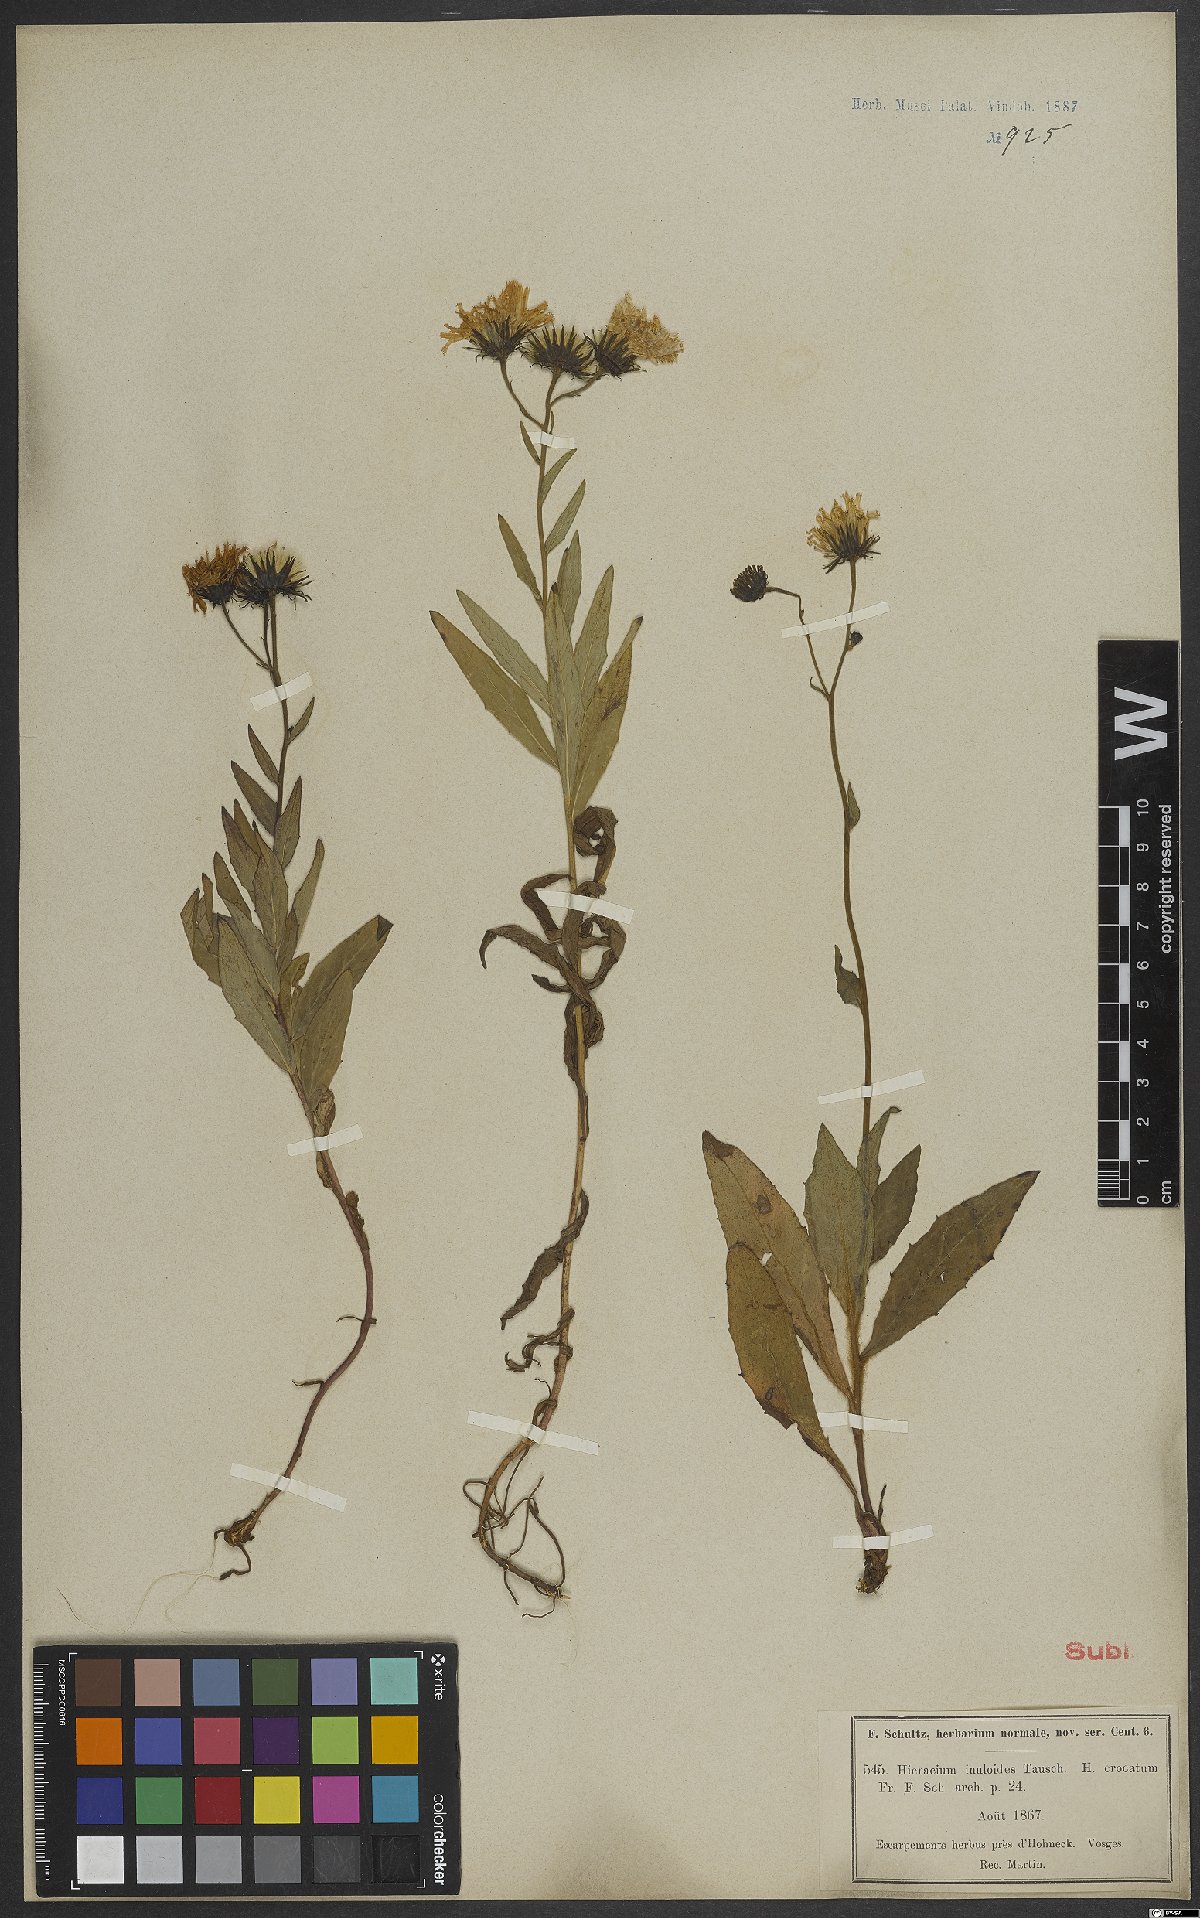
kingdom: Plantae
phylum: Tracheophyta
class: Magnoliopsida
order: Asterales
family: Asteraceae
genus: Hieracium
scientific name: Hieracium inuloides
